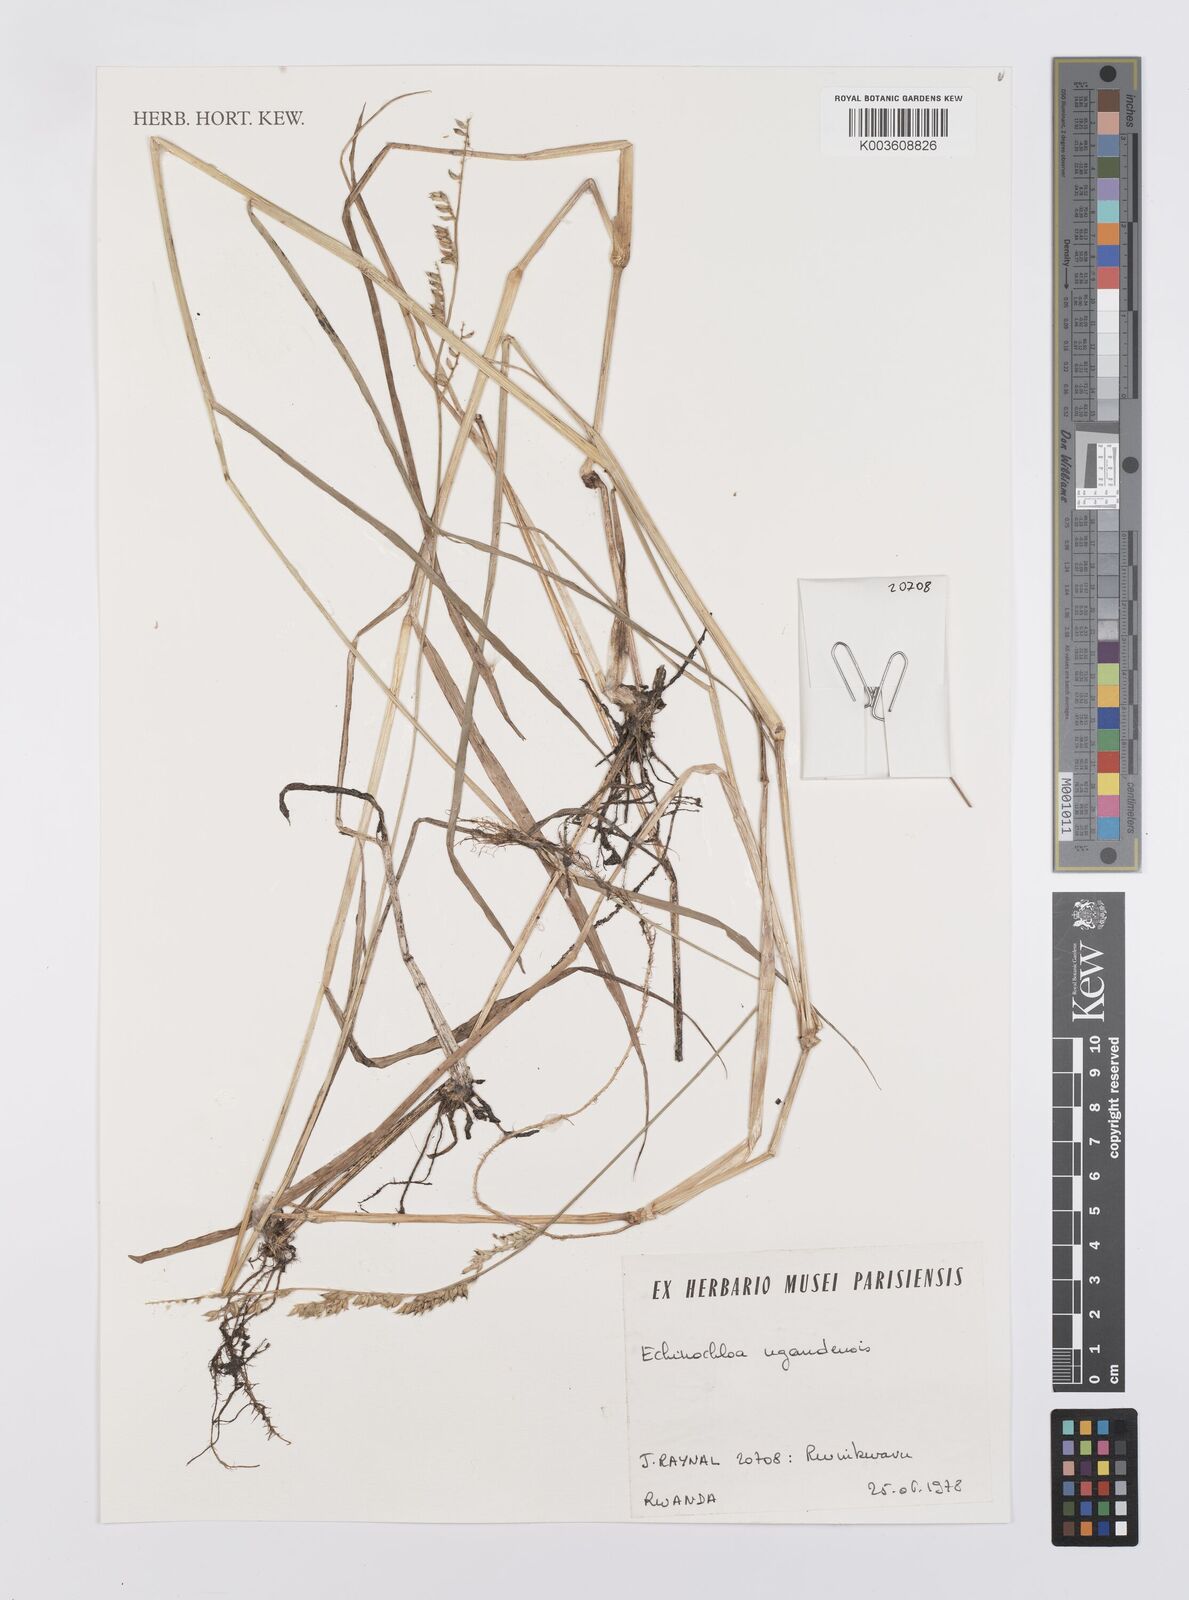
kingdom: Plantae
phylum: Tracheophyta
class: Liliopsida
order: Poales
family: Poaceae
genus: Echinochloa
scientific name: Echinochloa ugandensis
